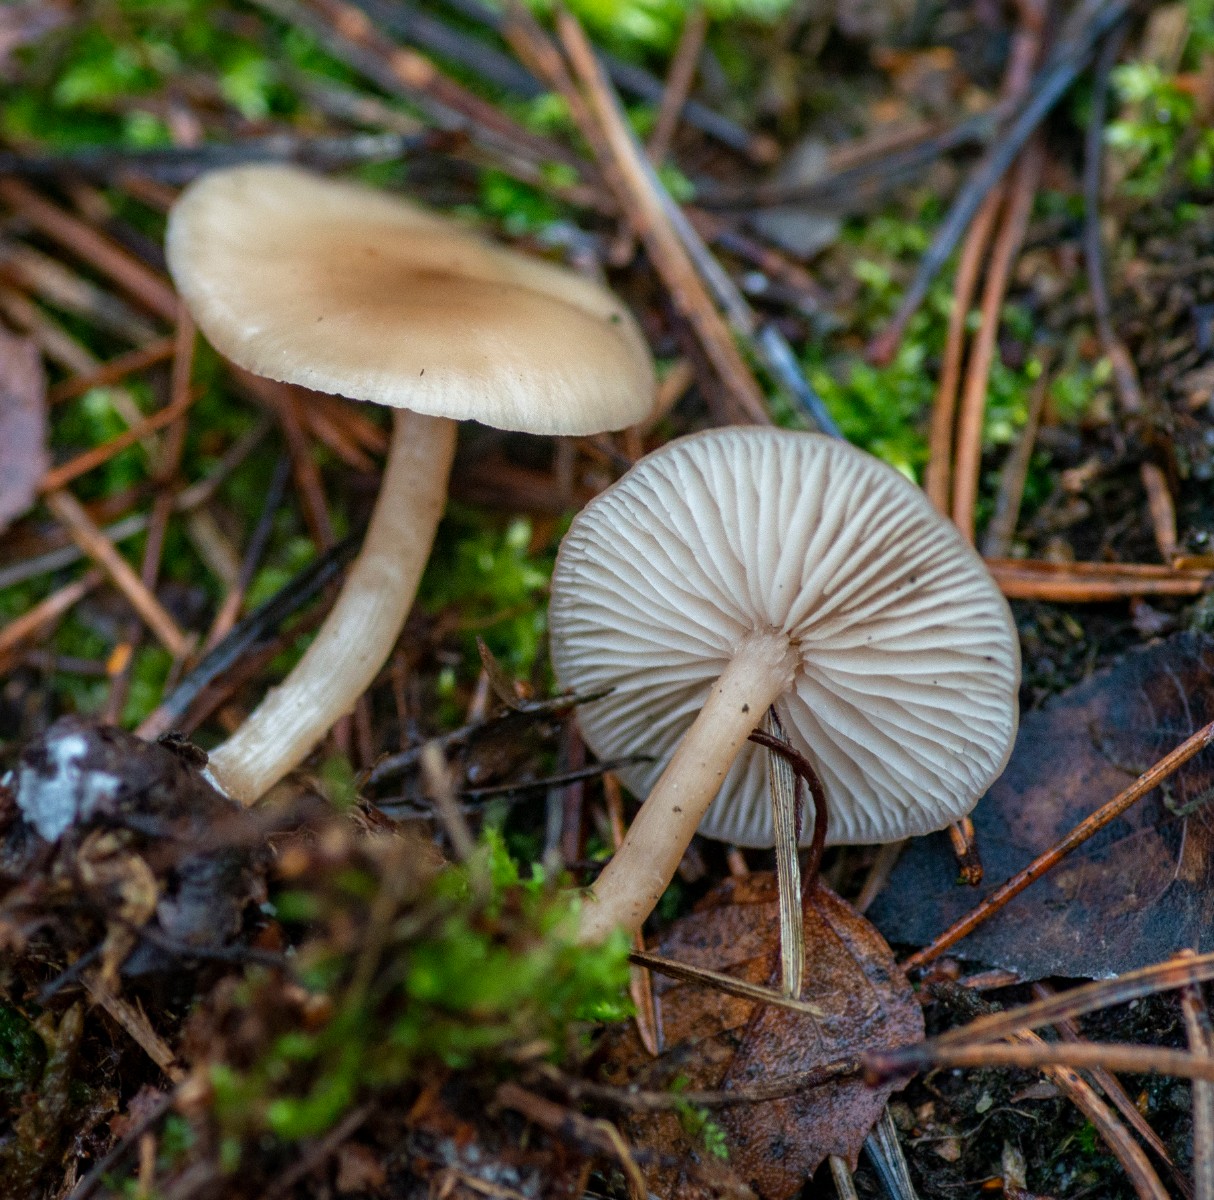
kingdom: Fungi
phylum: Basidiomycota
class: Agaricomycetes
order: Agaricales
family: Tricholomataceae
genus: Clitocybe
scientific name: Clitocybe fragrans
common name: vellugtende tragthat
